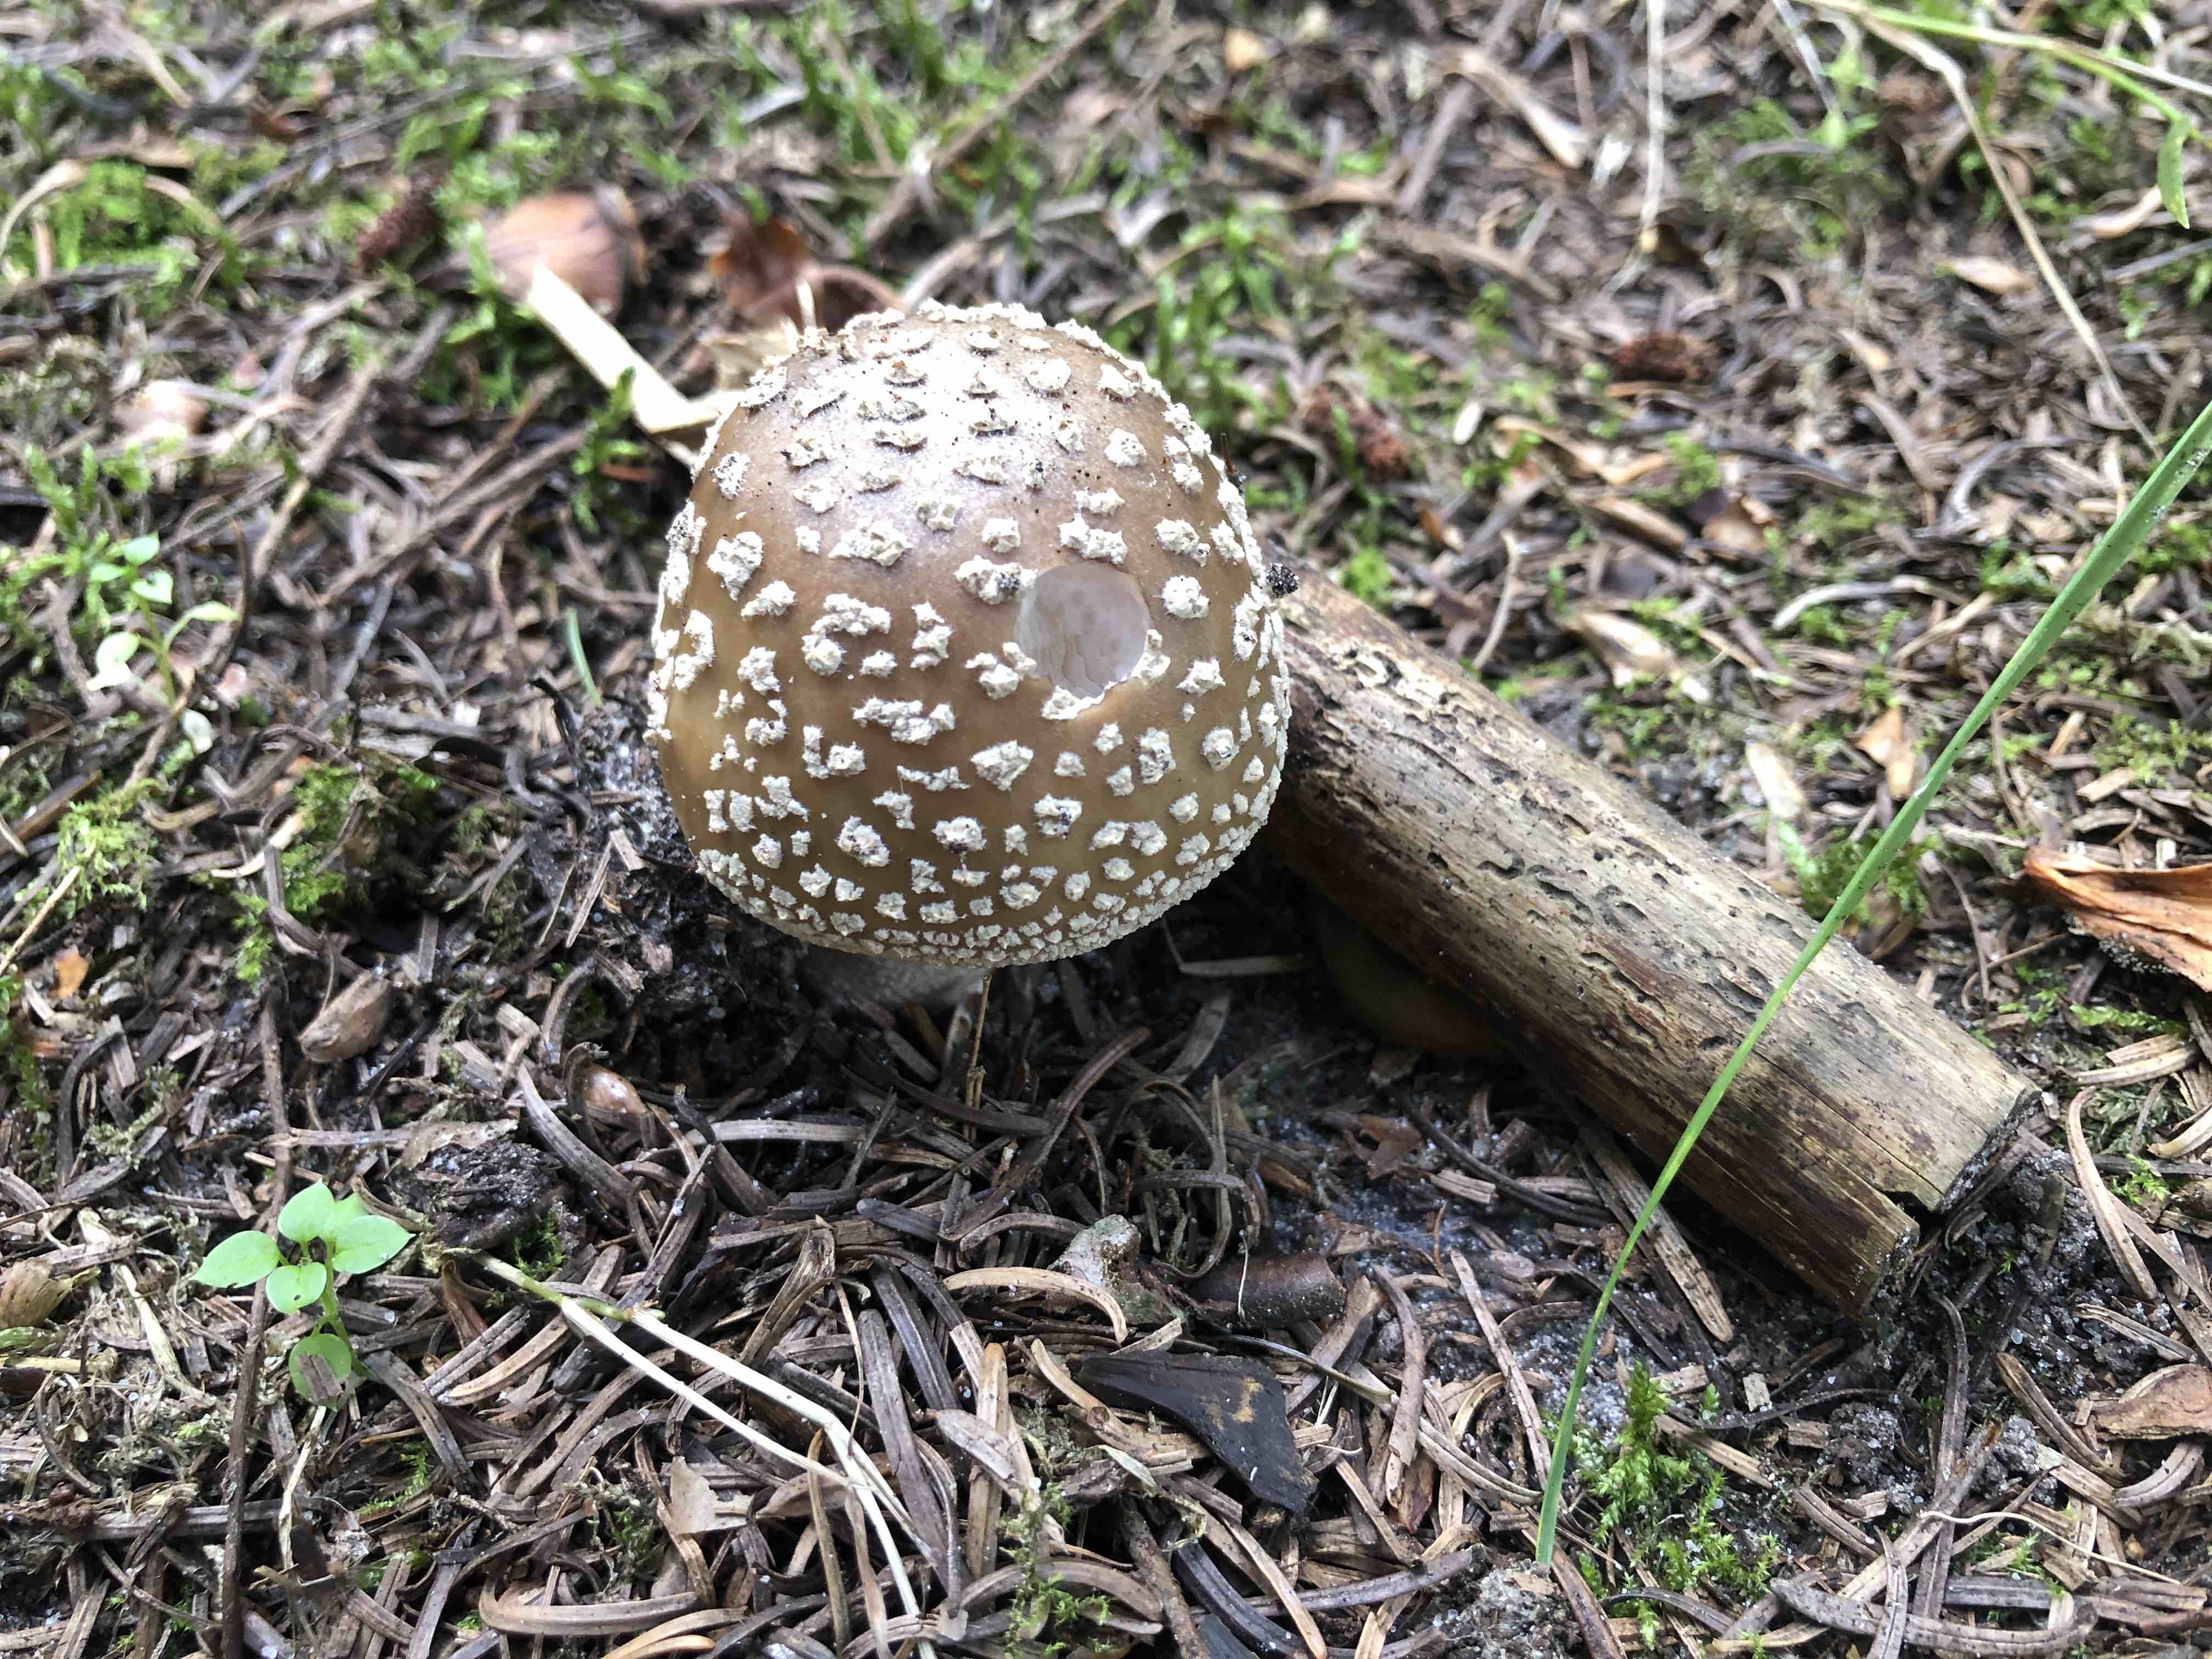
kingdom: Fungi
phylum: Basidiomycota
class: Agaricomycetes
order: Agaricales
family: Amanitaceae
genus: Amanita
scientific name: Amanita rubescens
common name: rødmende fluesvamp
